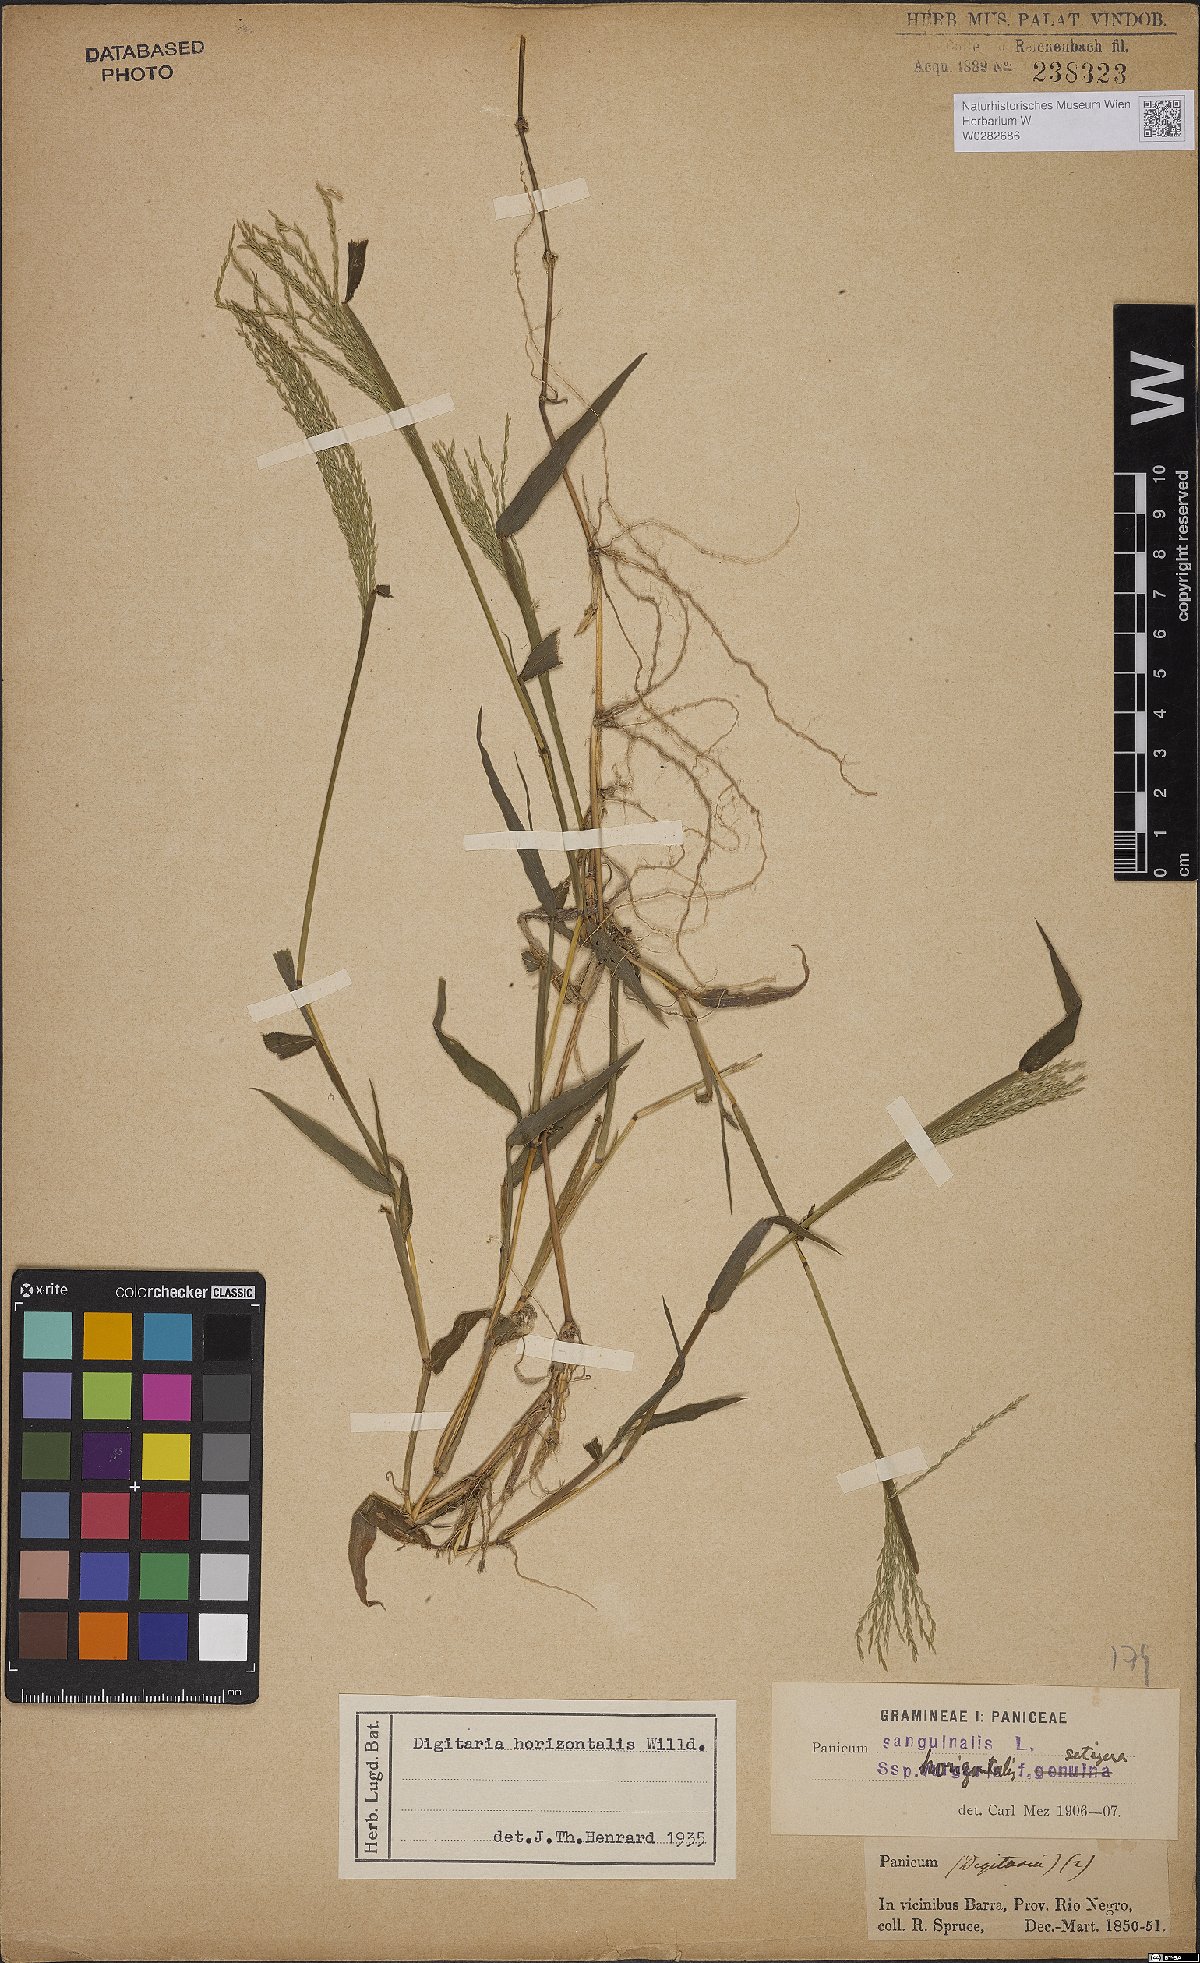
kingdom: Plantae
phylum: Tracheophyta
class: Liliopsida
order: Poales
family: Poaceae
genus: Digitaria
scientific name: Digitaria horizontalis
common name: Jamaican crabgrass
